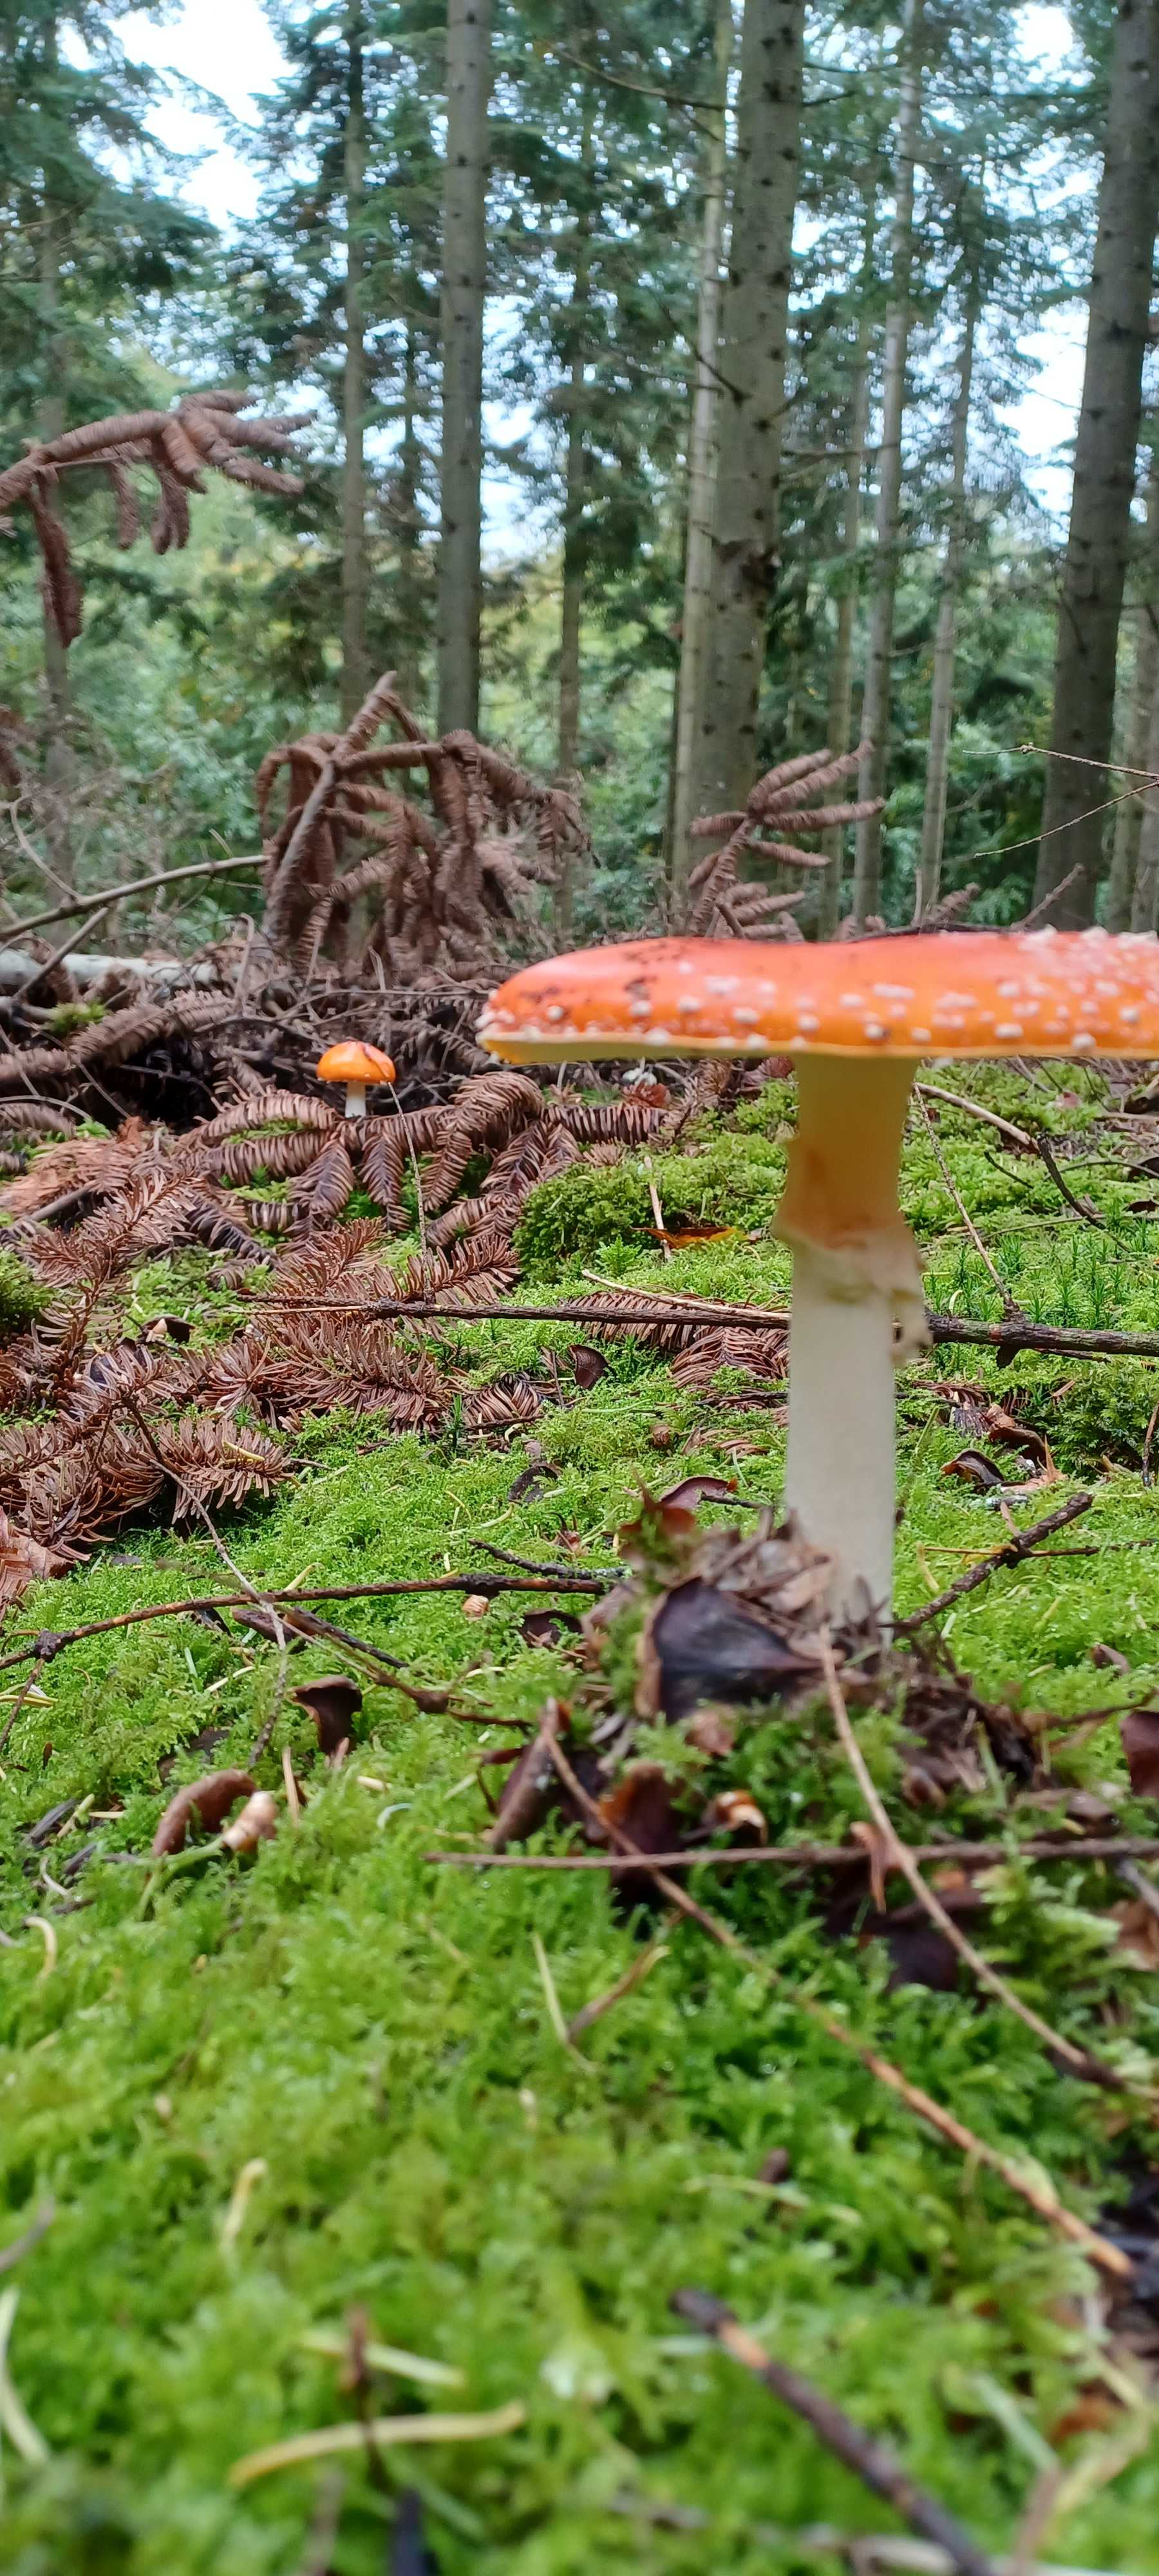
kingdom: Fungi
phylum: Basidiomycota
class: Agaricomycetes
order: Agaricales
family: Amanitaceae
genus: Amanita
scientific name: Amanita muscaria
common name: rød fluesvamp
